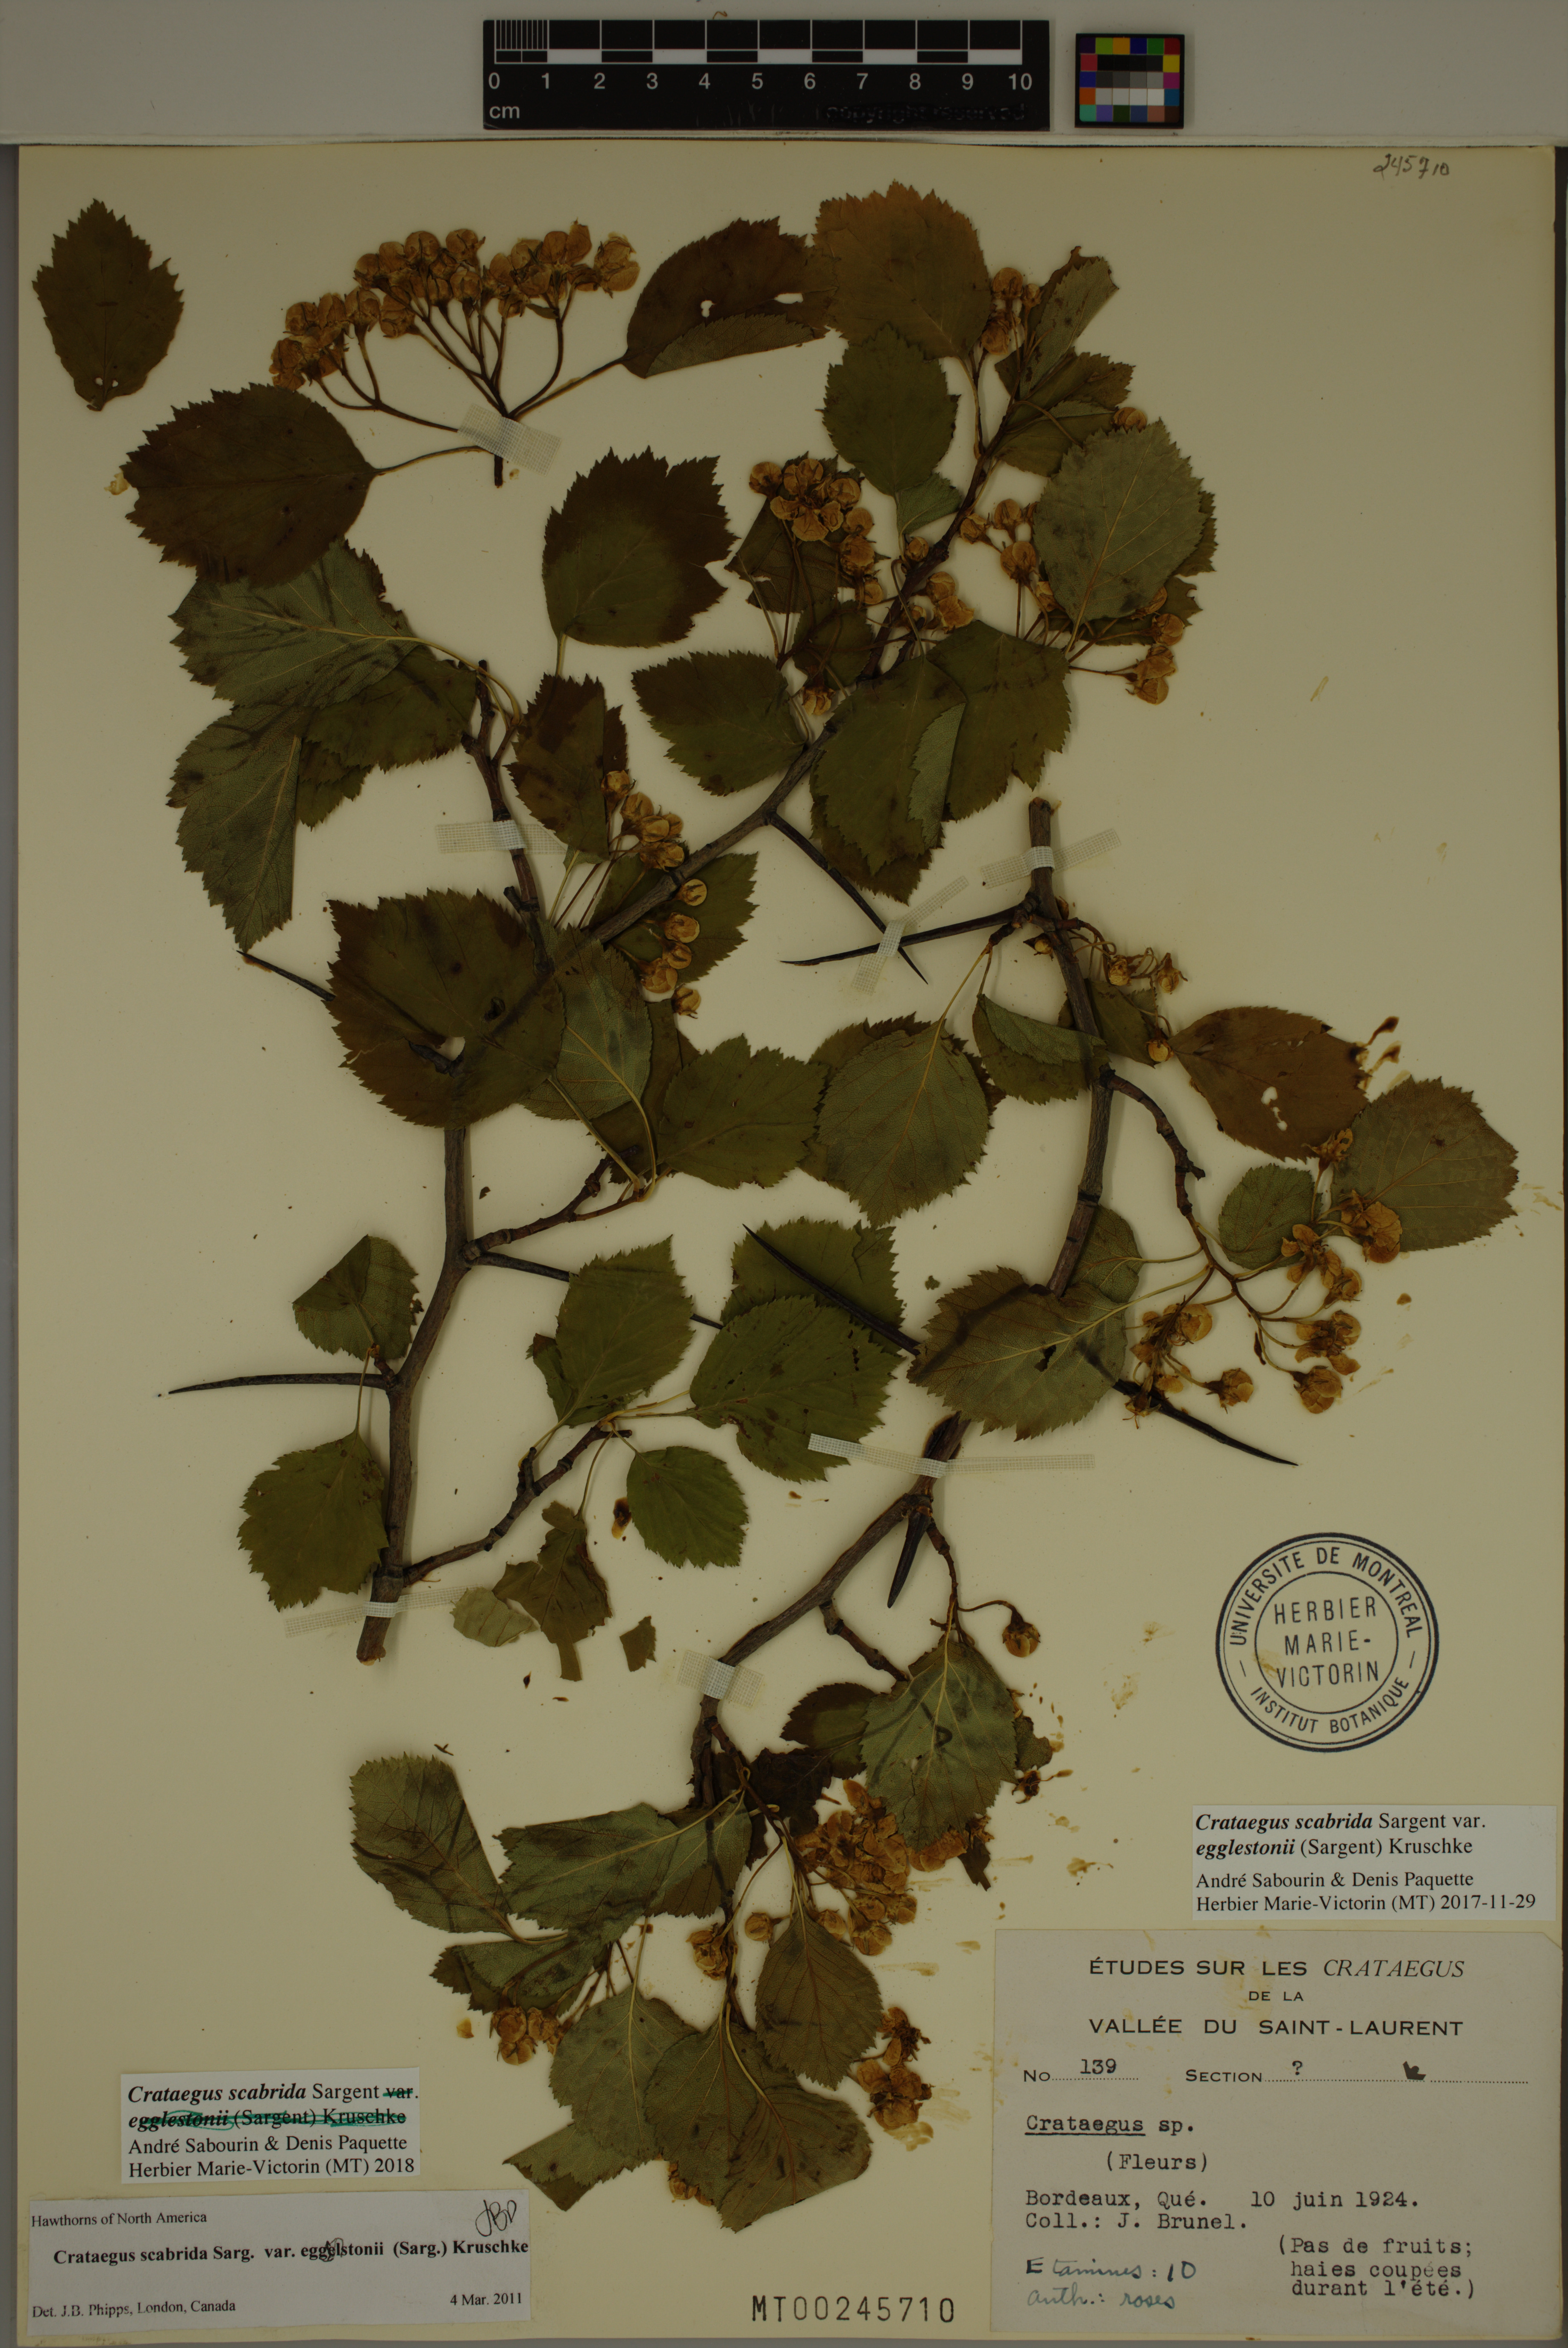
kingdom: Plantae
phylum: Tracheophyta
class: Magnoliopsida
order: Rosales
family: Rosaceae
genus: Crataegus
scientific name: Crataegus scabrida
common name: Rough hawthorn
